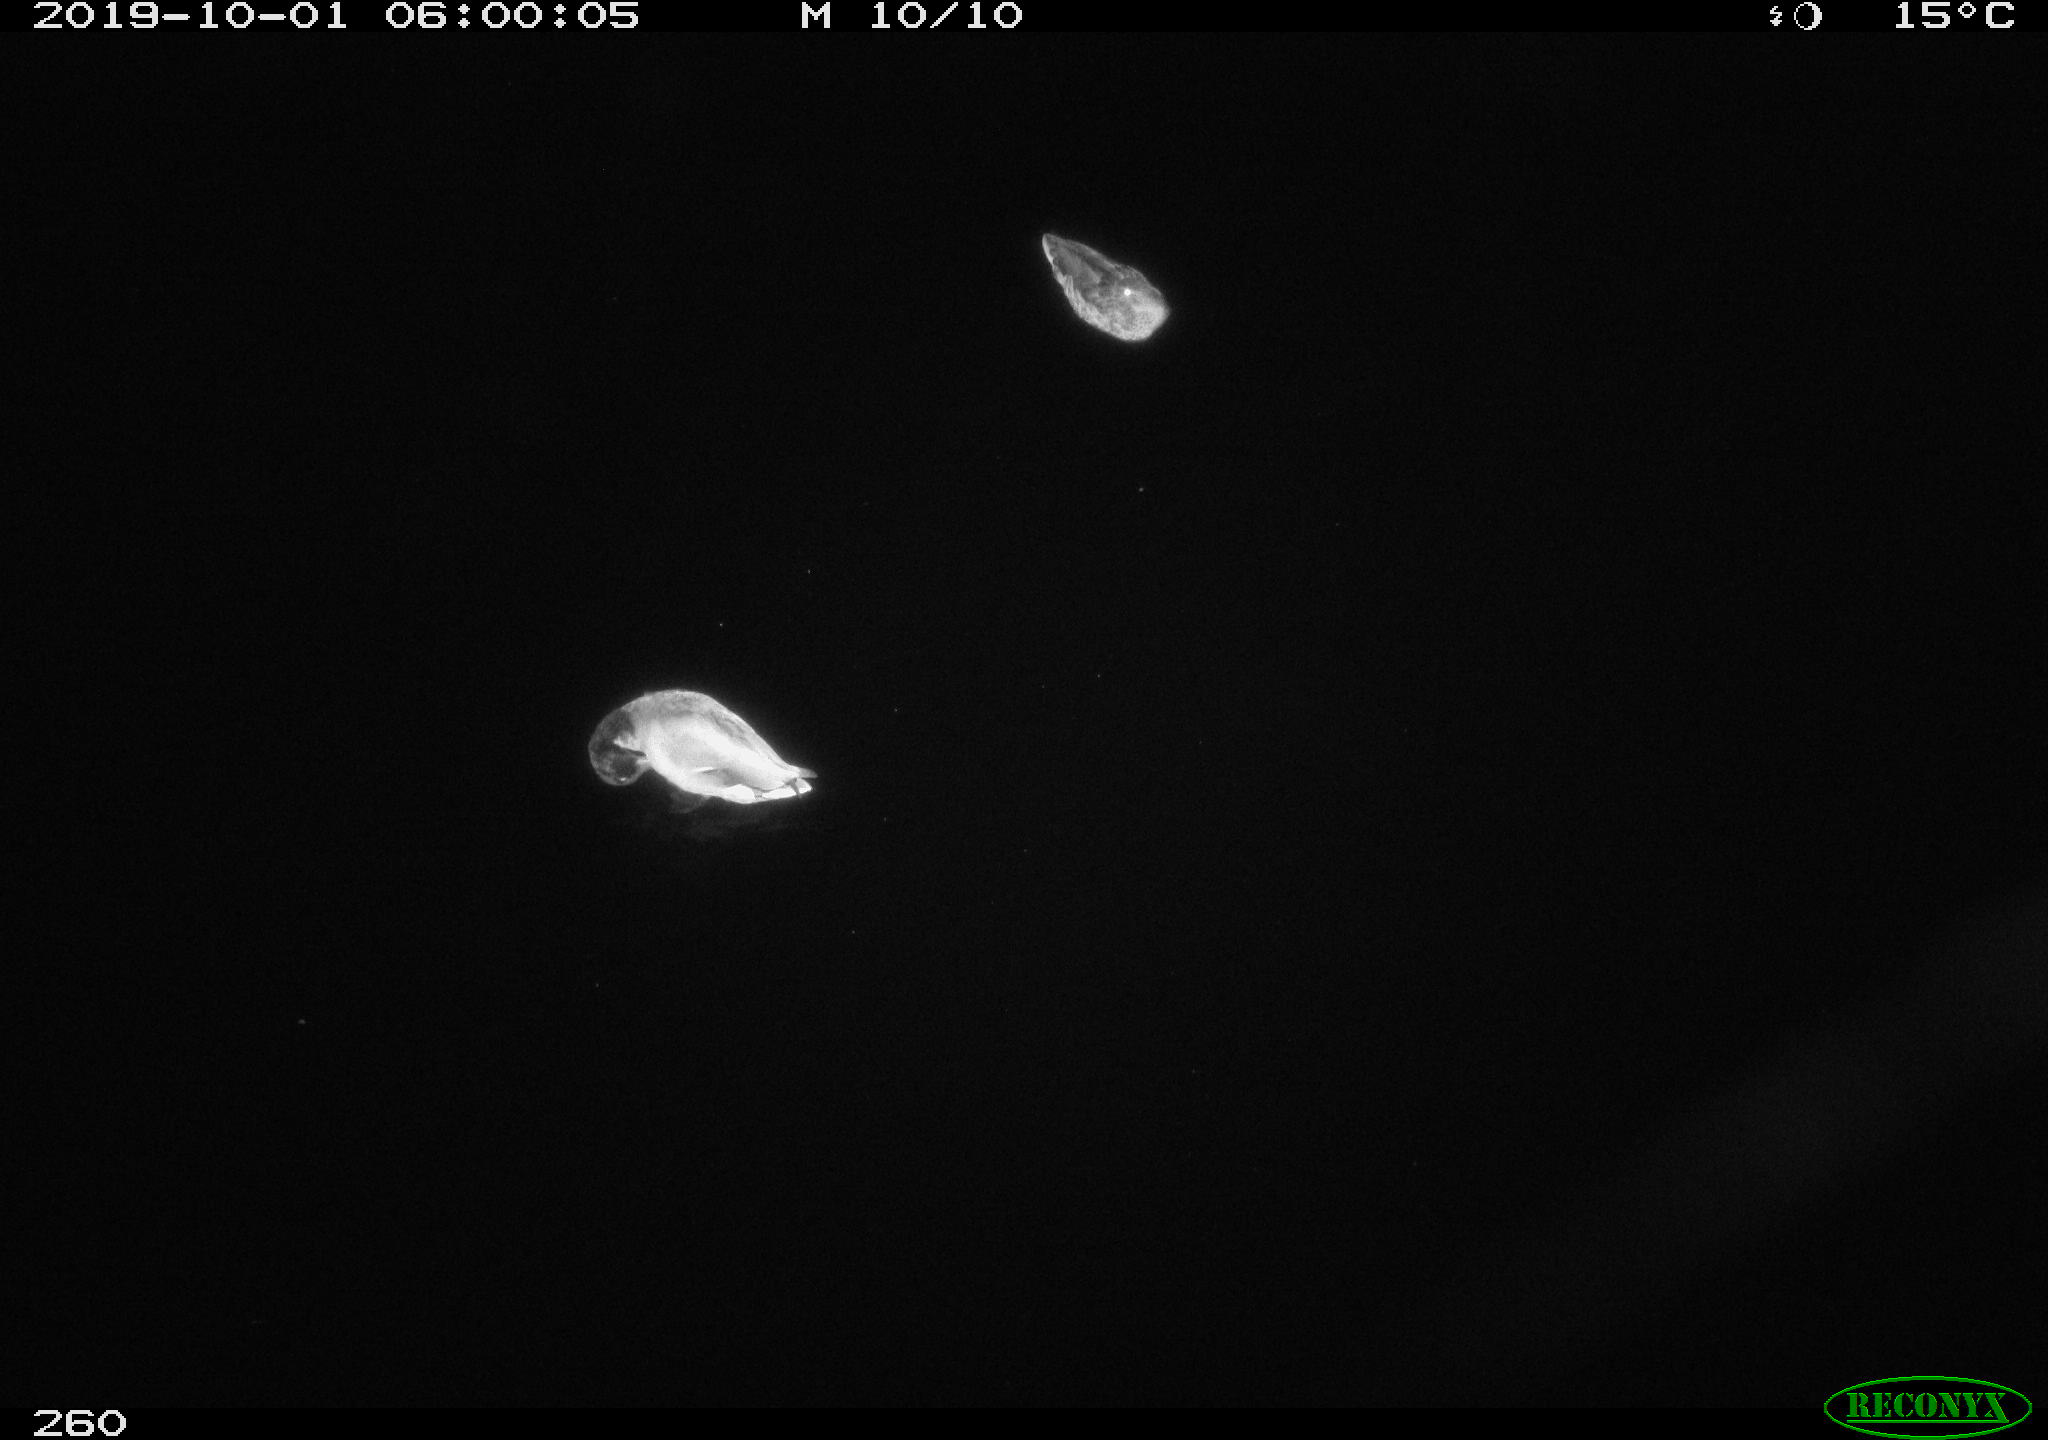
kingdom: Animalia
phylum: Chordata
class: Aves
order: Anseriformes
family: Anatidae
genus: Anas
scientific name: Anas platyrhynchos
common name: Mallard
